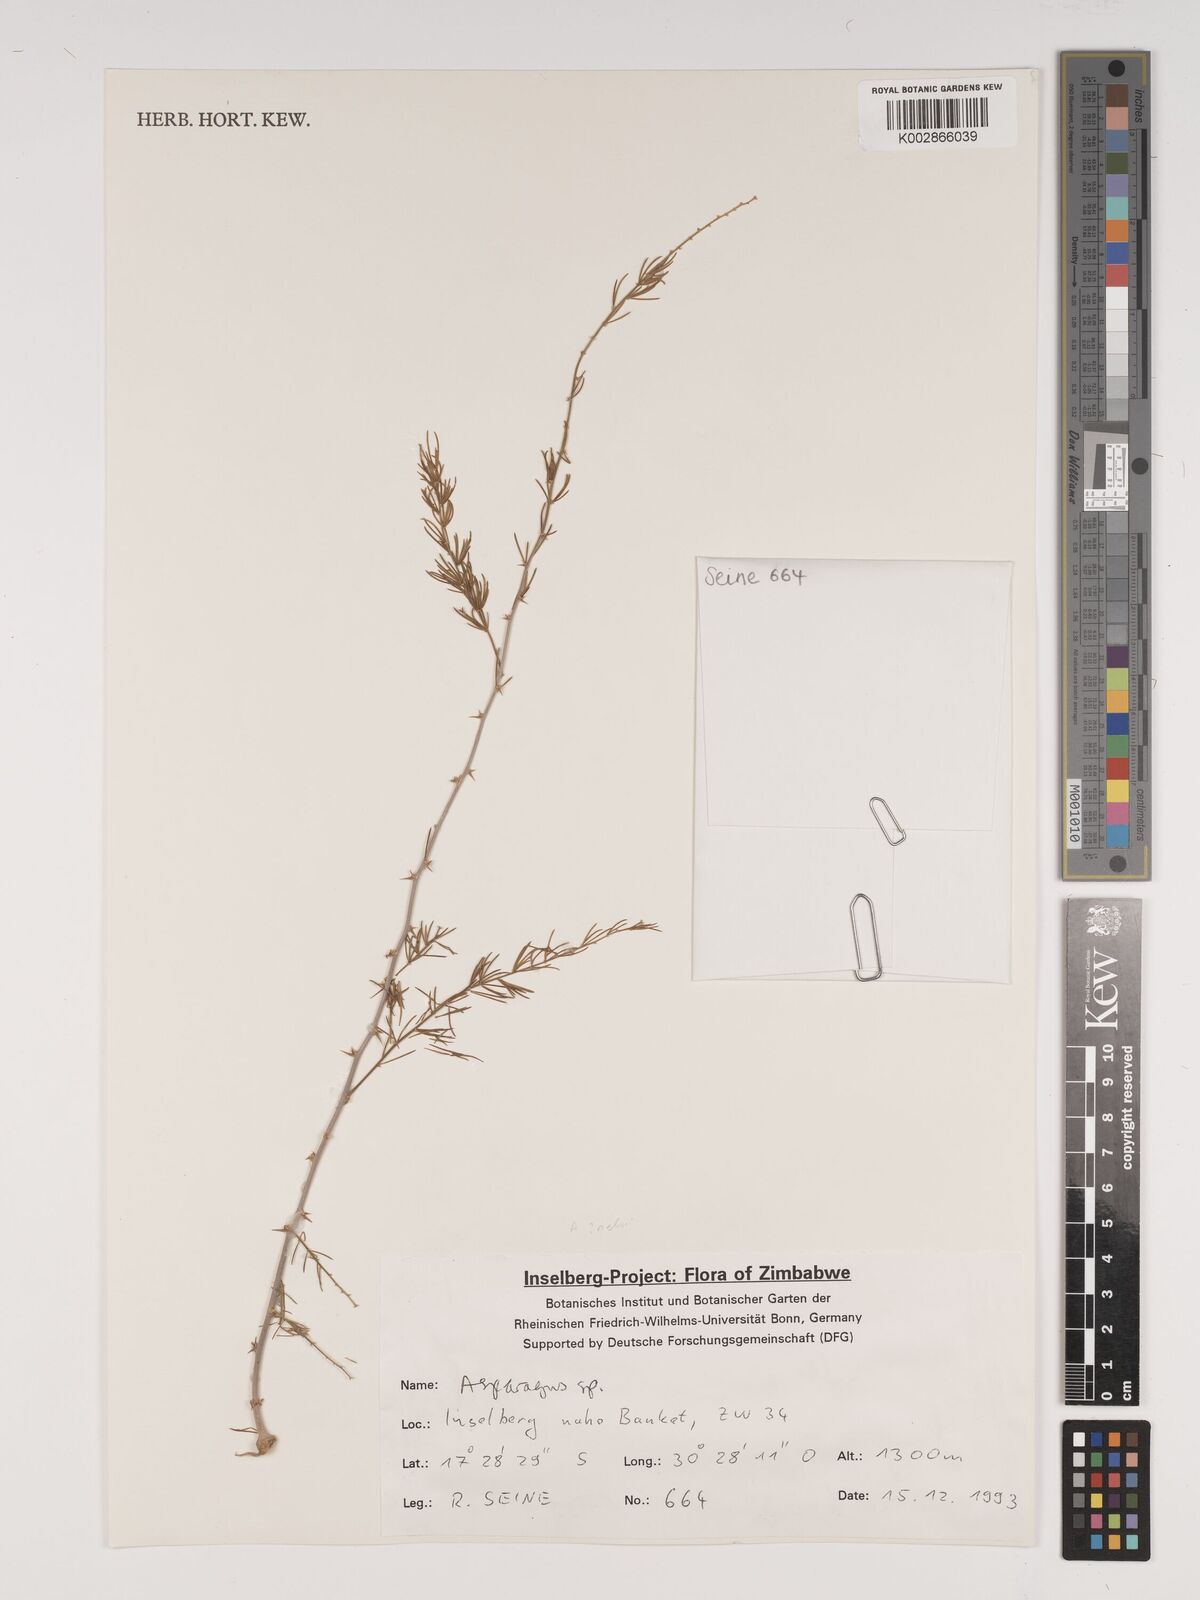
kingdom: Plantae
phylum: Tracheophyta
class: Liliopsida
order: Asparagales
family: Asparagaceae
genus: Asparagus
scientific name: Asparagus
